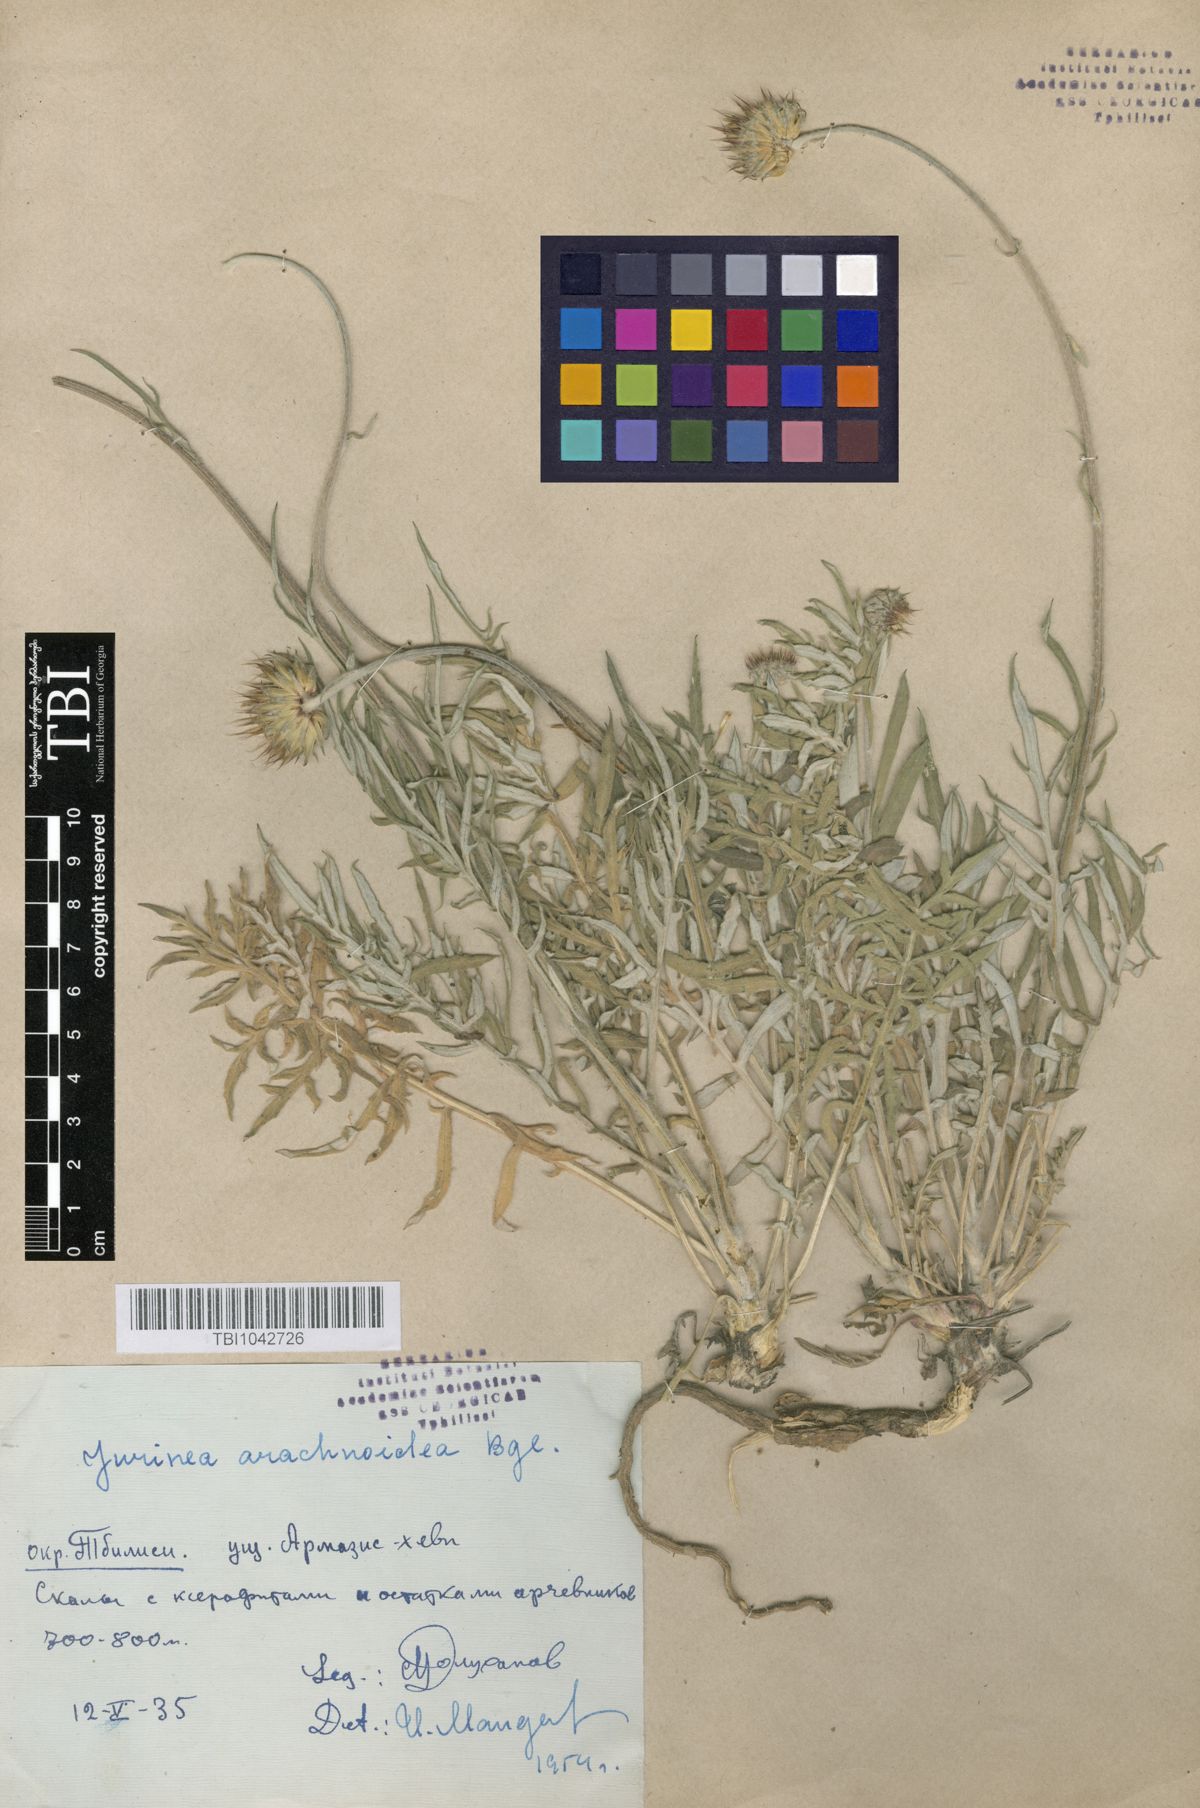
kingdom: Plantae
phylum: Tracheophyta
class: Magnoliopsida
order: Asterales
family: Asteraceae
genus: Jurinea
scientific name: Jurinea blanda
